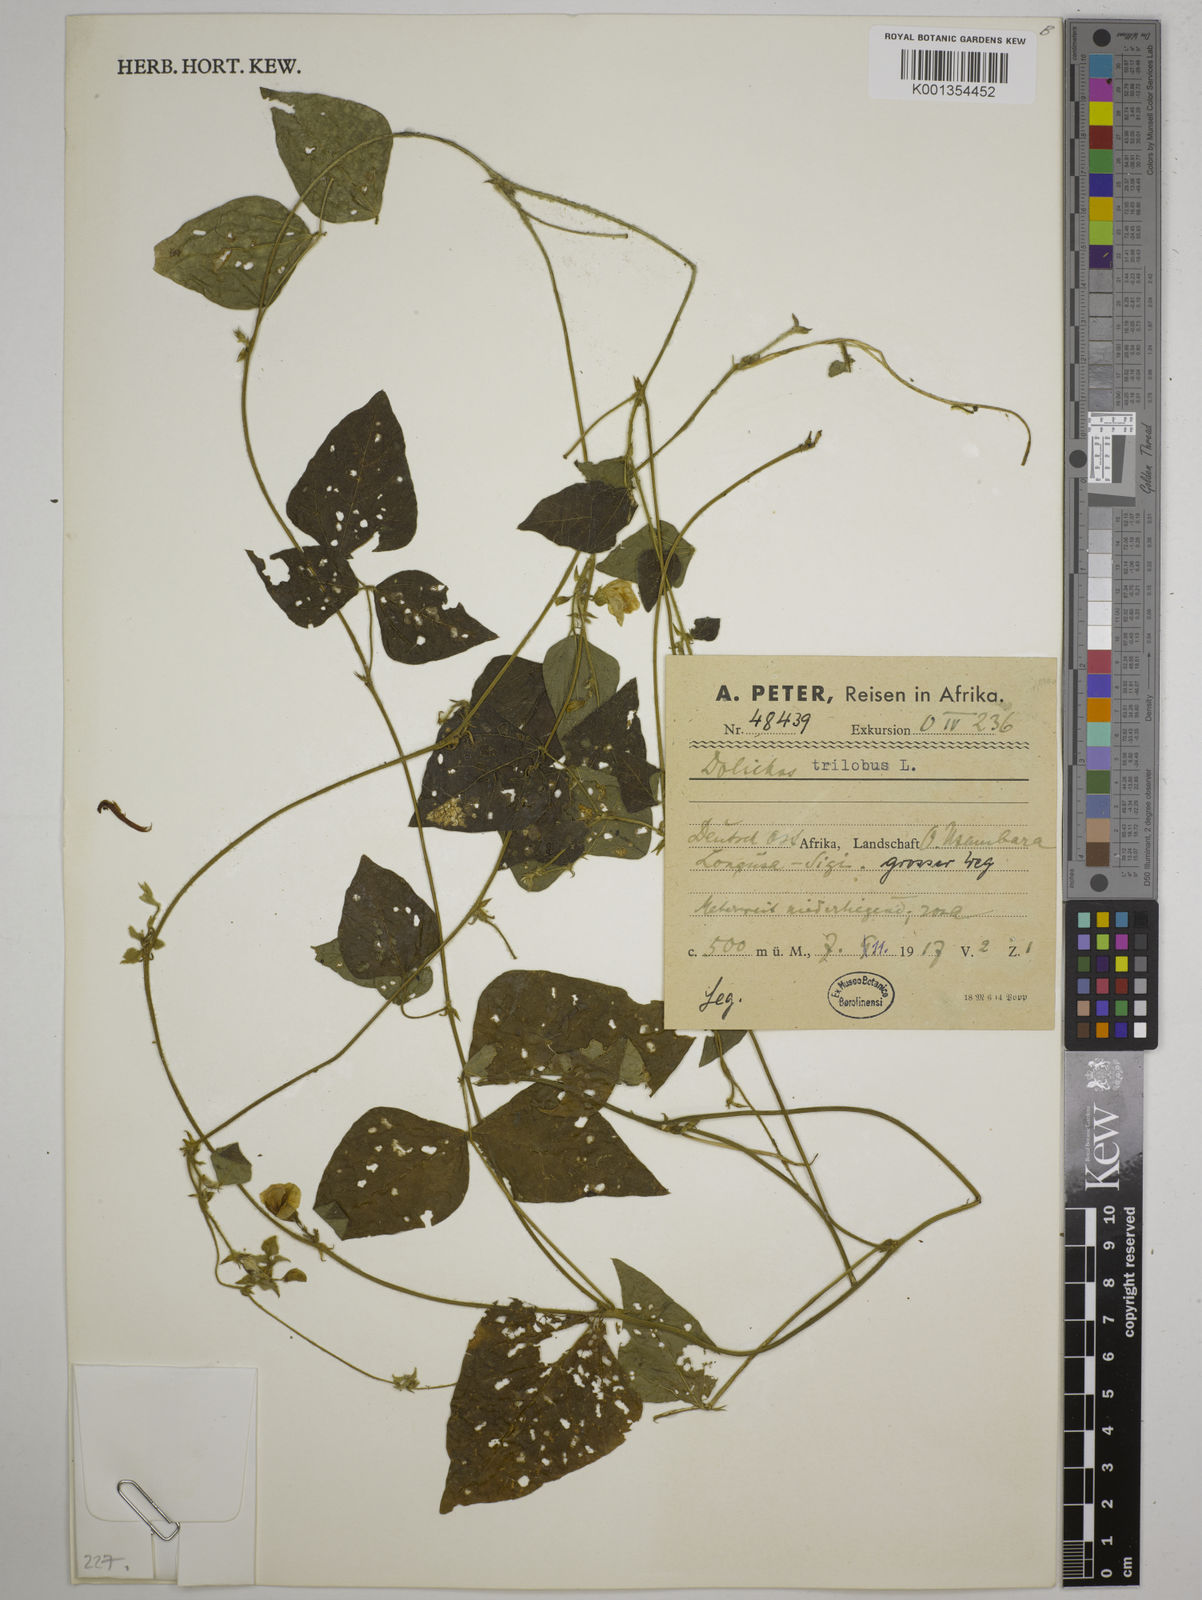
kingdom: Plantae
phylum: Tracheophyta
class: Magnoliopsida
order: Fabales
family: Fabaceae
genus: Dolichos
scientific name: Dolichos
